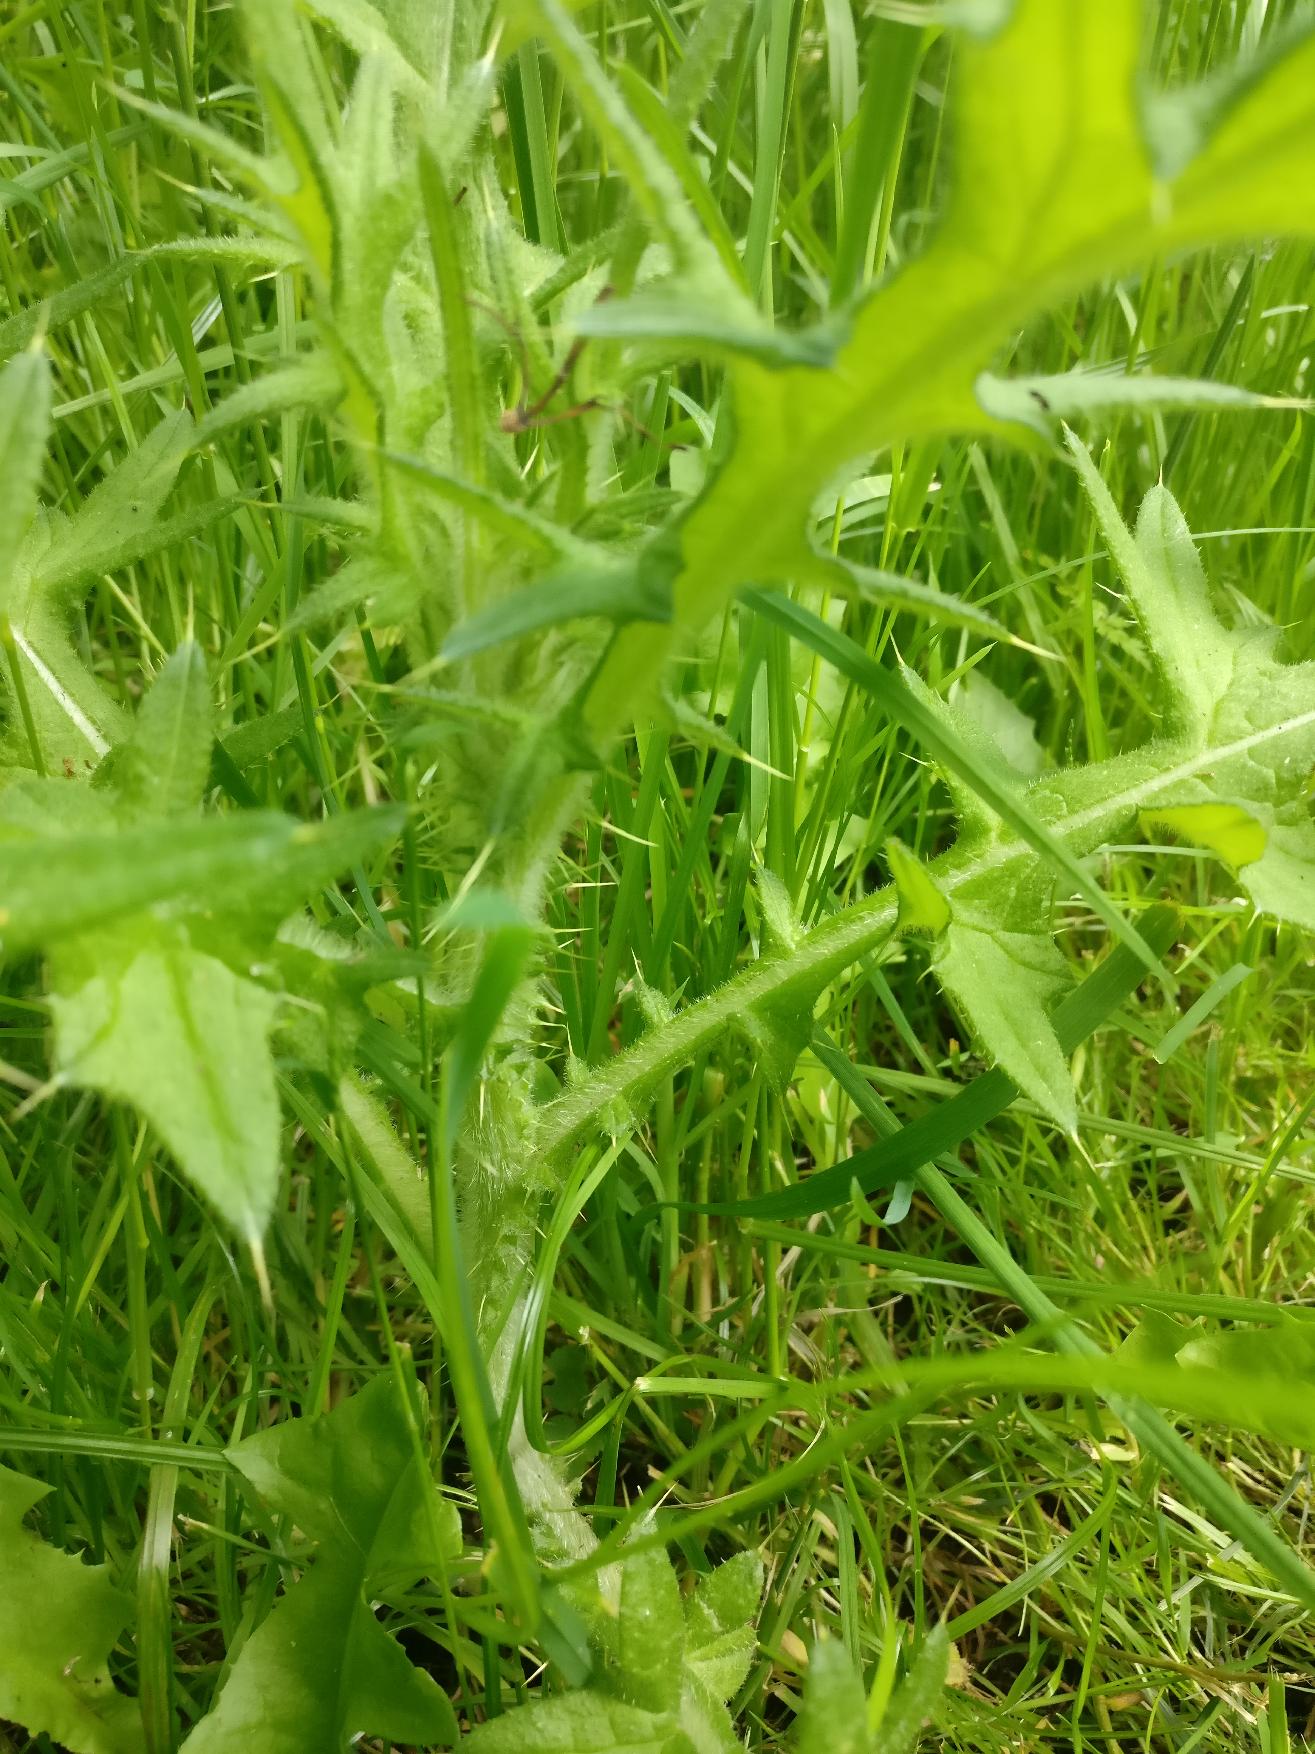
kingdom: Plantae
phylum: Tracheophyta
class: Magnoliopsida
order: Asterales
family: Asteraceae
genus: Cirsium
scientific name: Cirsium vulgare
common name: Horse-tidsel
